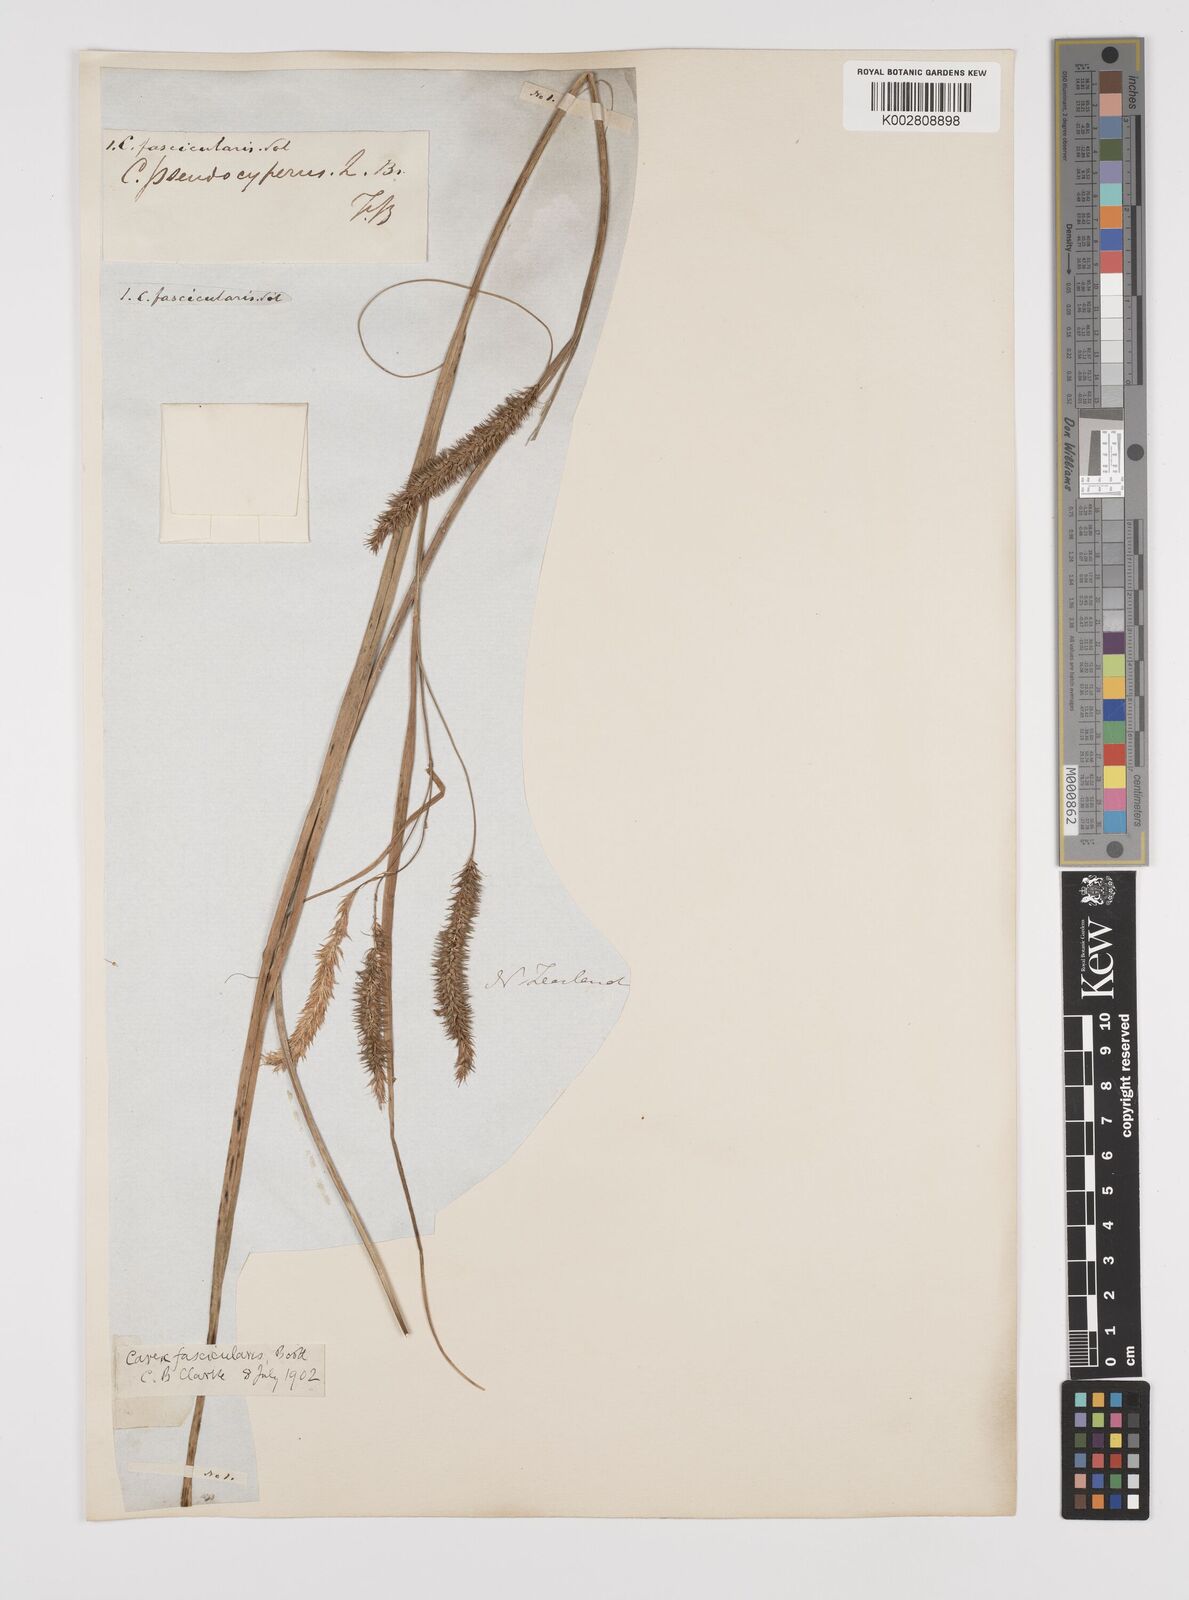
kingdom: Plantae
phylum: Tracheophyta
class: Liliopsida
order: Poales
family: Cyperaceae
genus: Carex
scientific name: Carex pseudocyperus
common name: Cyperus sedge
